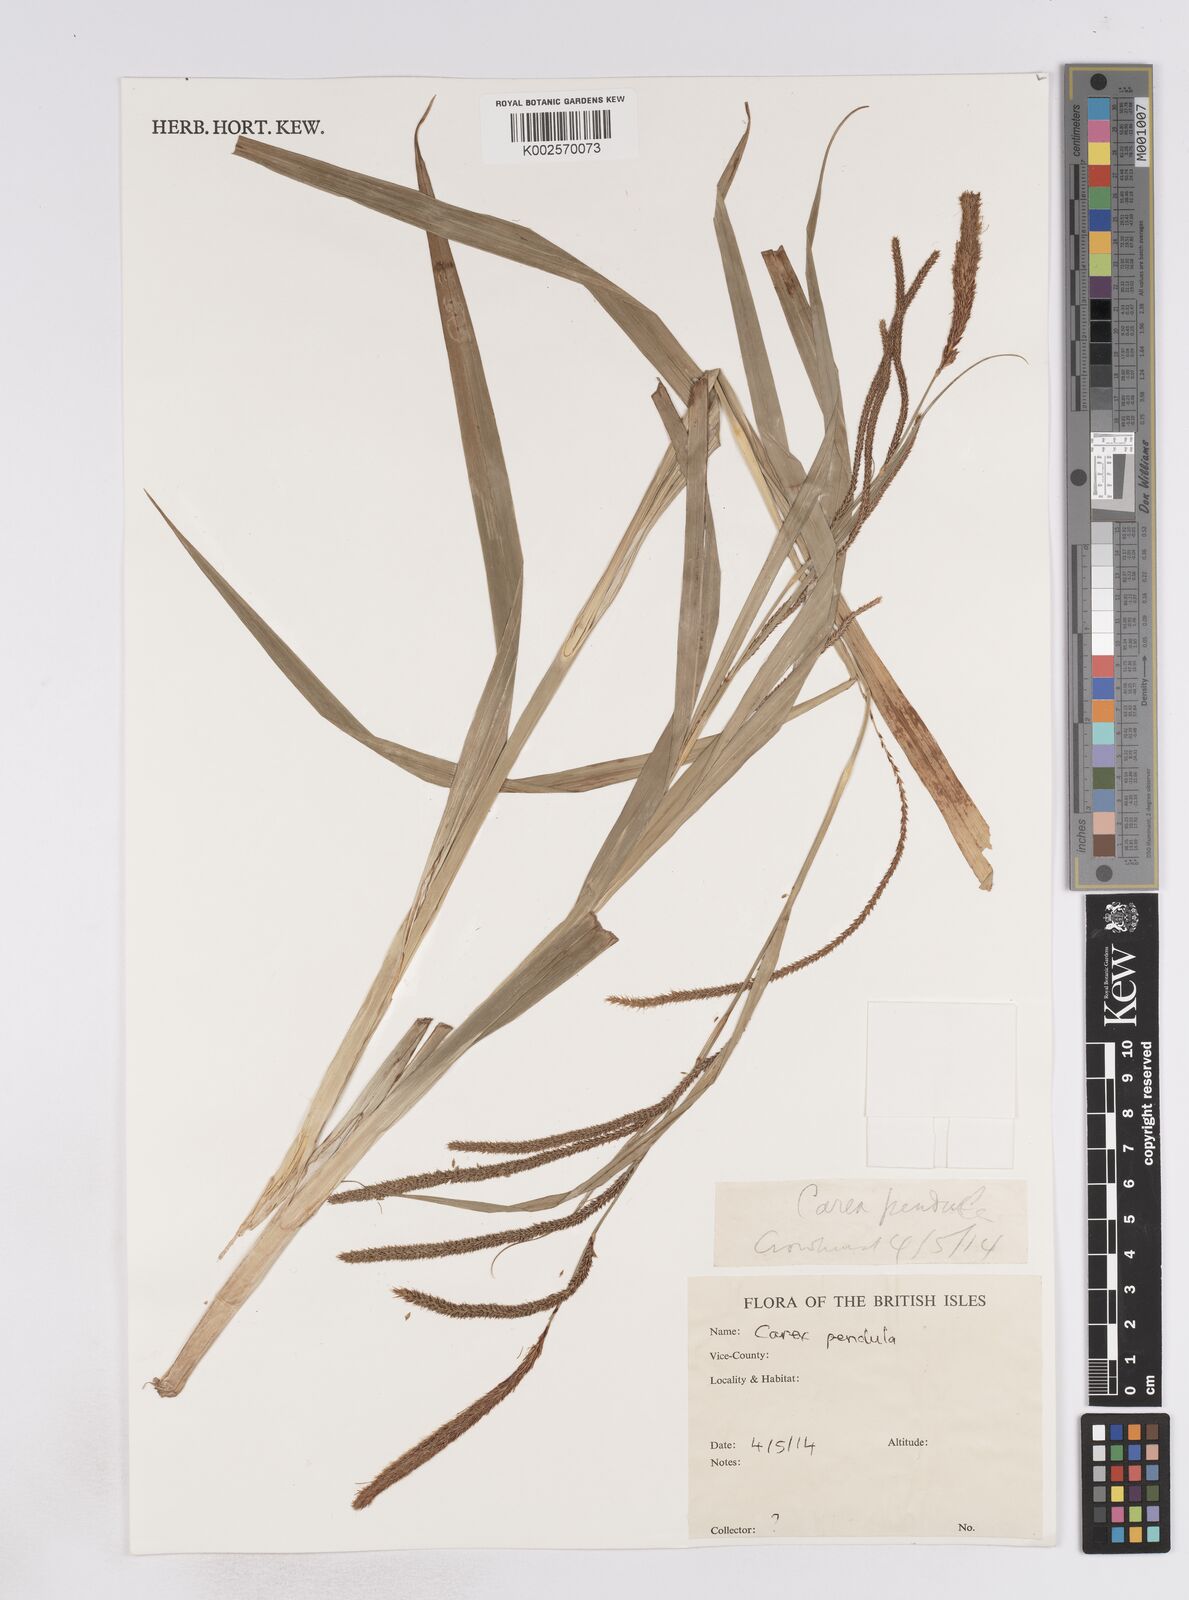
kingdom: Plantae
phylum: Tracheophyta
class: Liliopsida
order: Poales
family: Cyperaceae
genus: Carex
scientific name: Carex pendula
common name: Pendulous sedge
